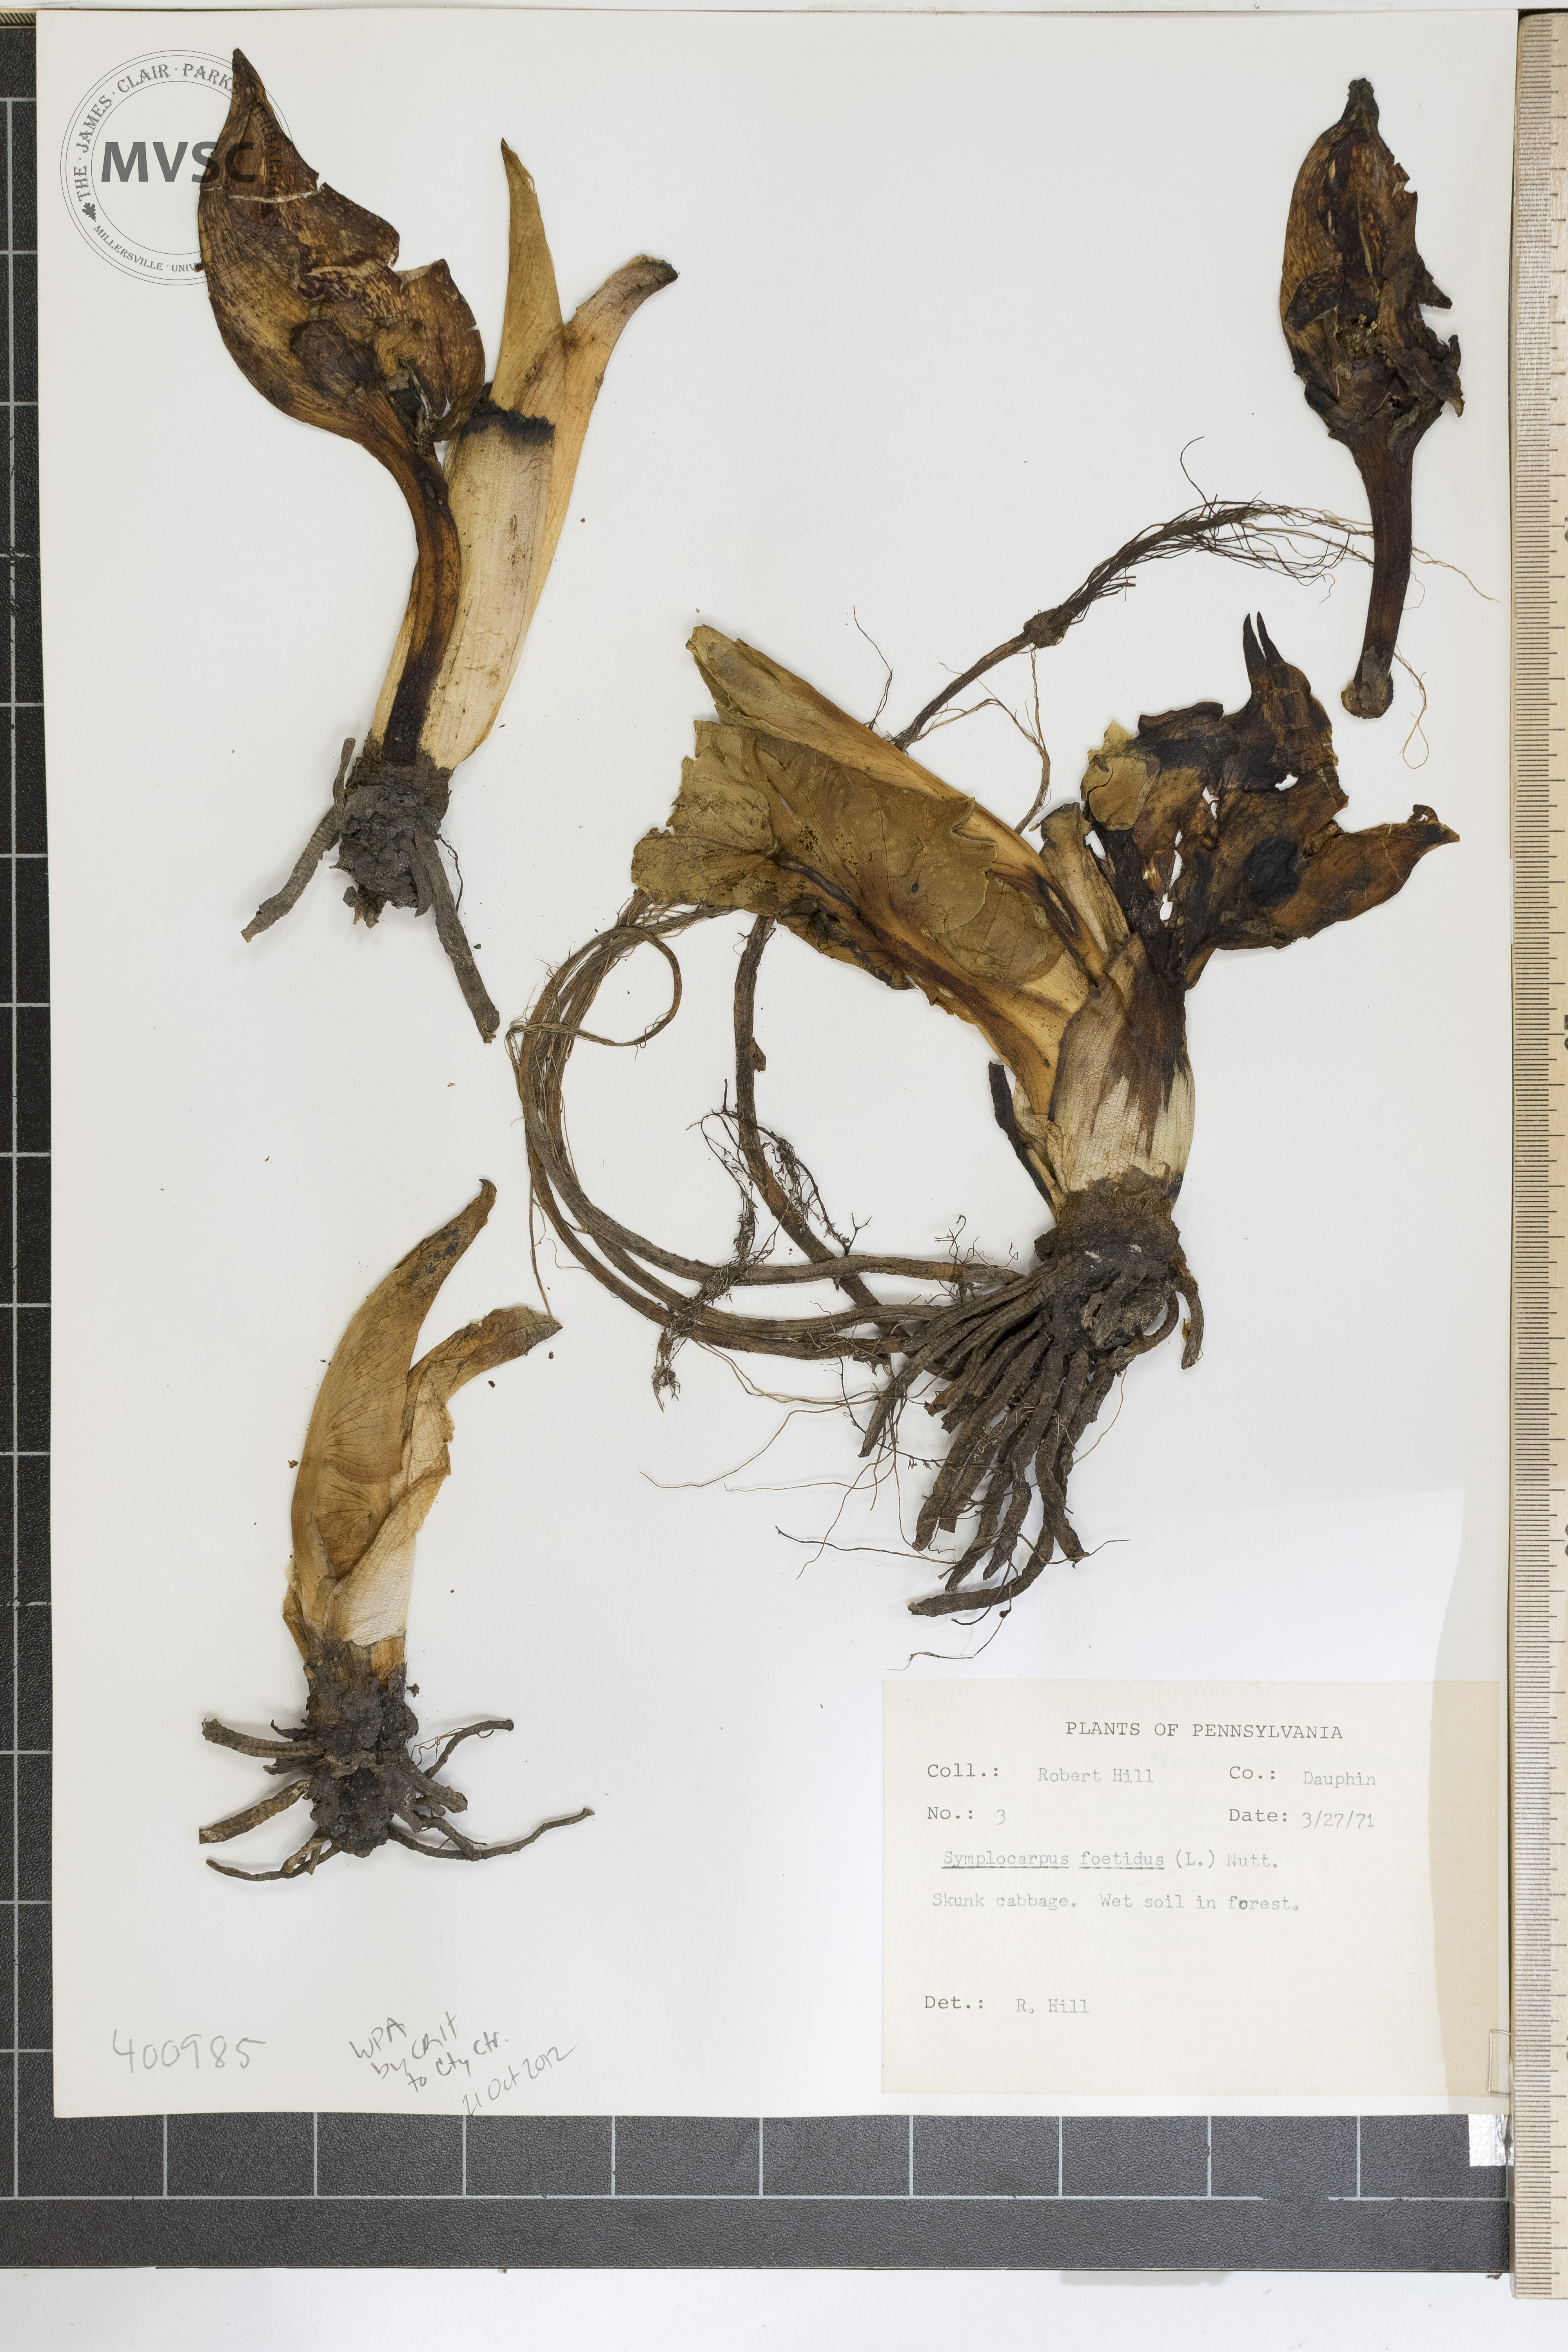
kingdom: Plantae
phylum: Tracheophyta
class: Liliopsida
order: Alismatales
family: Araceae
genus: Symplocarpus
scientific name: Symplocarpus foetidus
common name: skunk-cabbage
